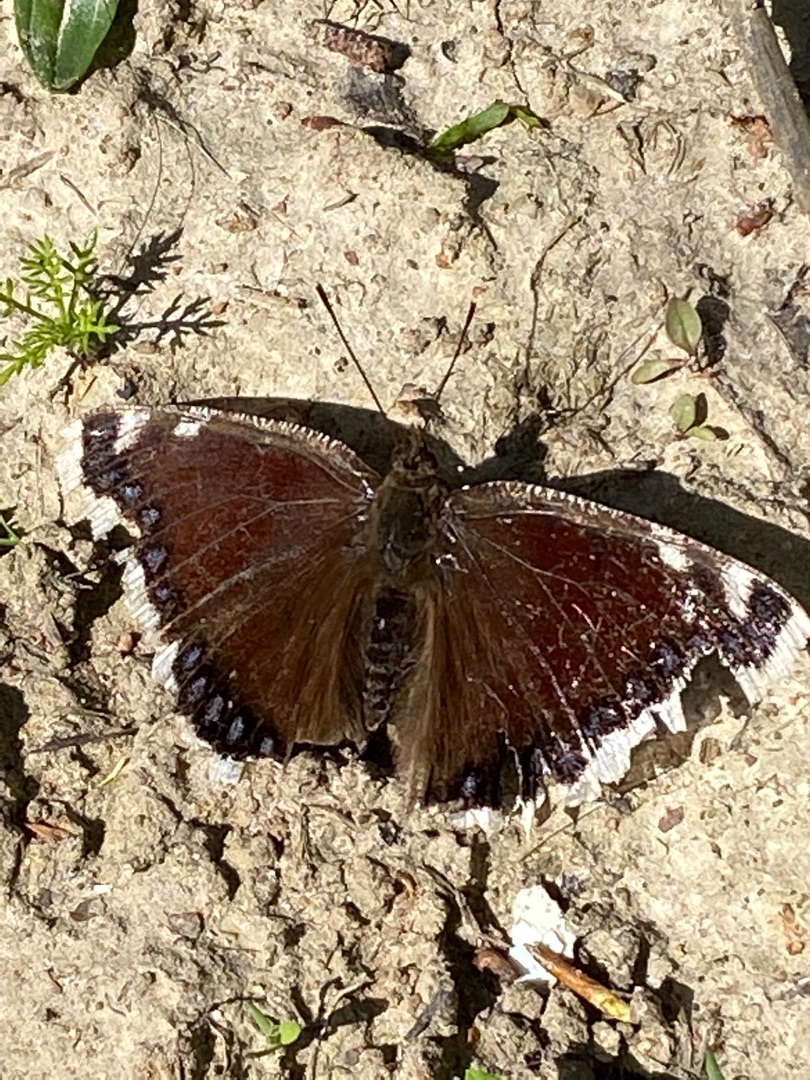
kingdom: Animalia
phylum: Arthropoda
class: Insecta
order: Lepidoptera
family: Nymphalidae
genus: Nymphalis
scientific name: Nymphalis antiopa
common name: Sørgekåbe
